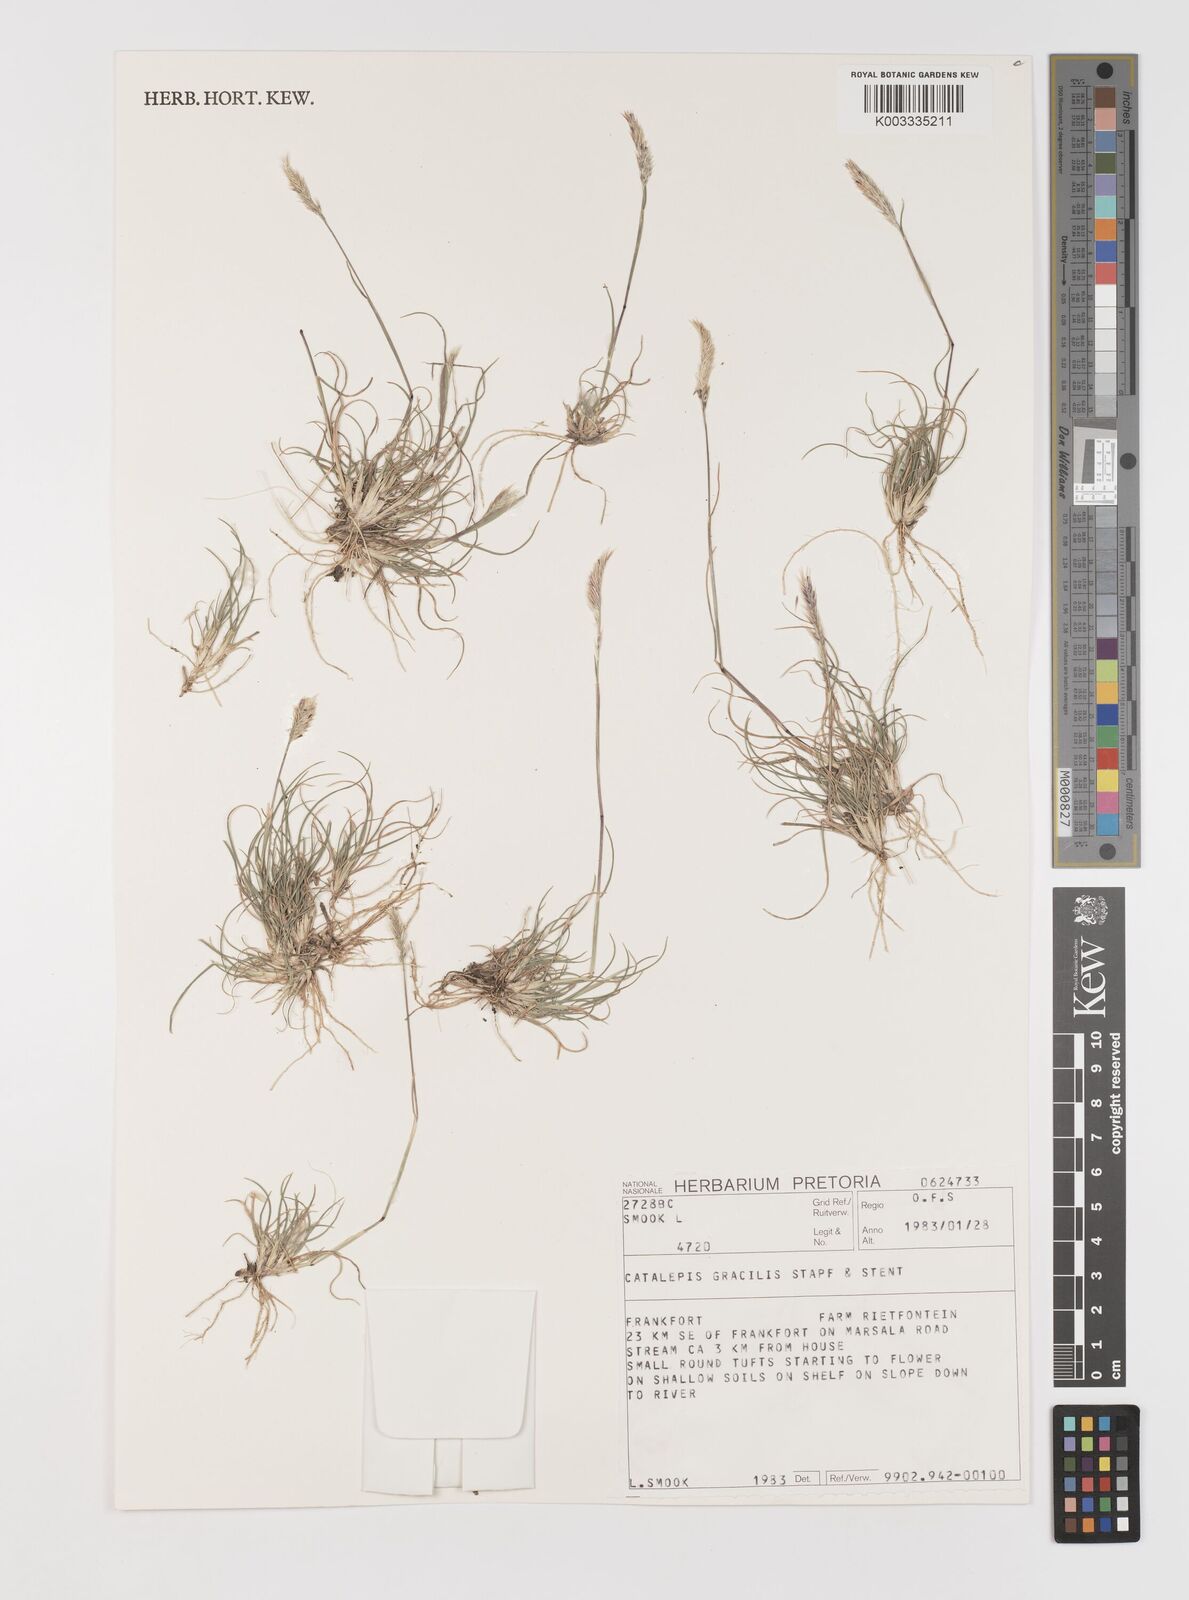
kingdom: Plantae
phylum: Tracheophyta
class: Liliopsida
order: Poales
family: Poaceae
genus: Catalepis
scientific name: Catalepis gracilis
